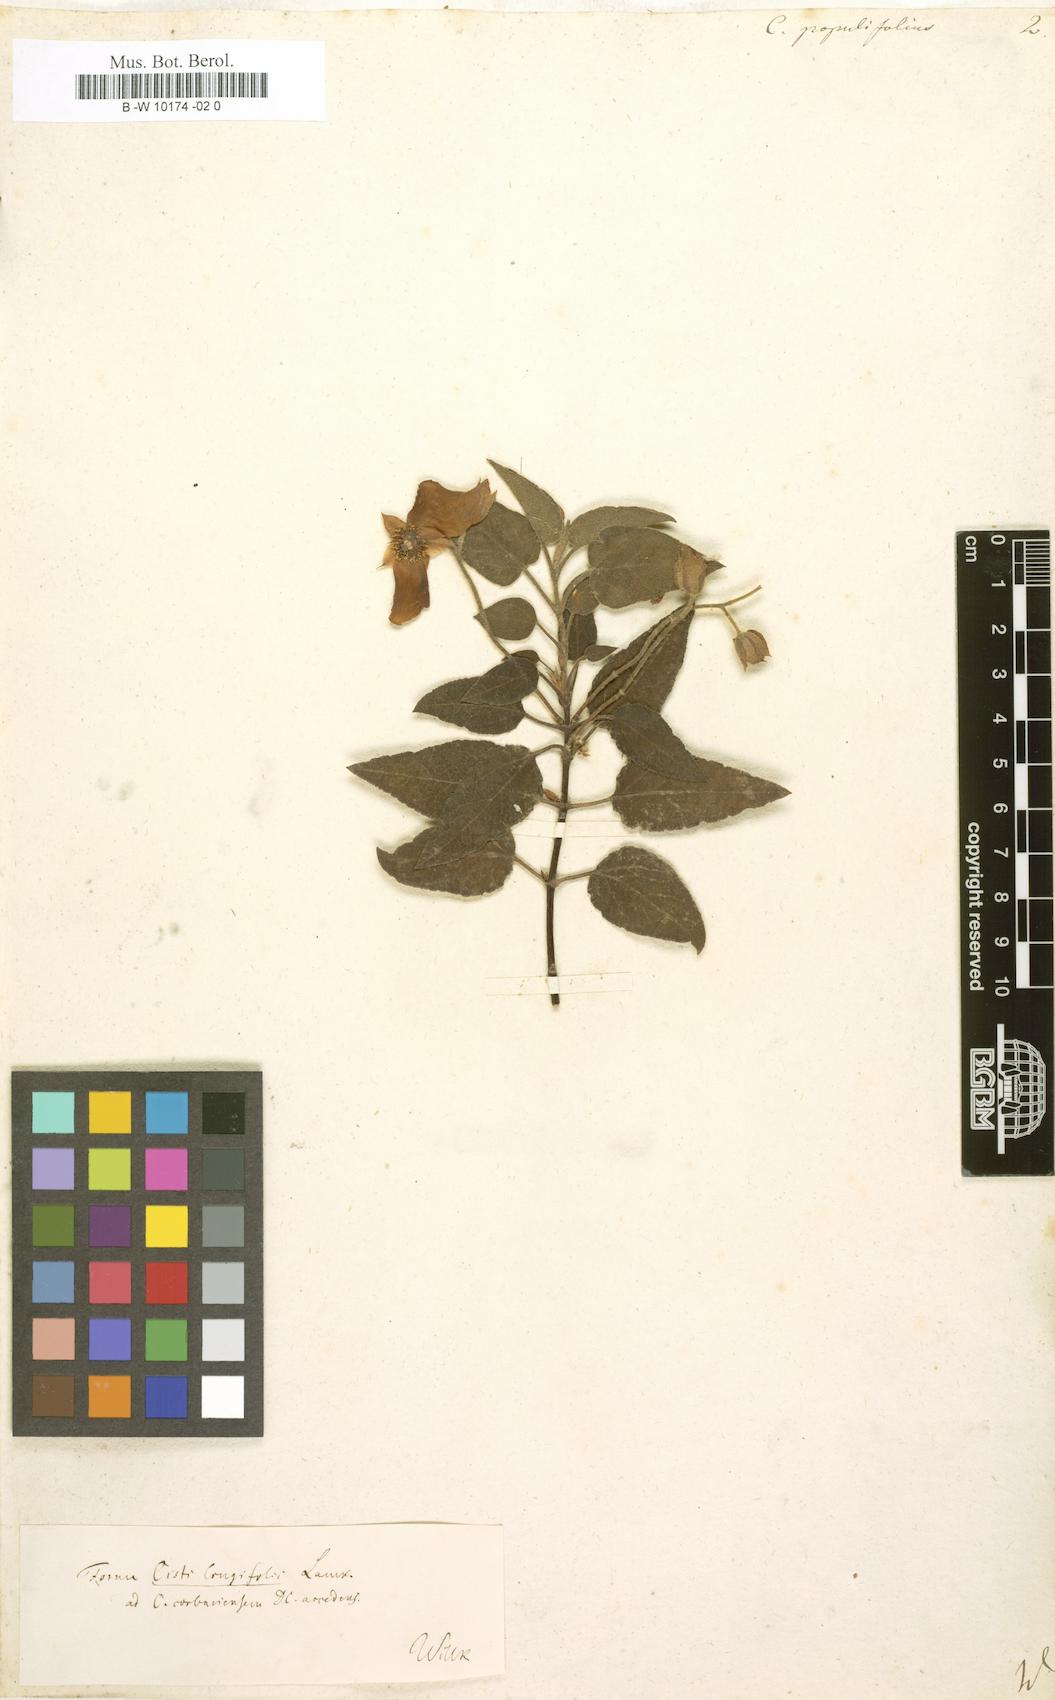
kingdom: Plantae
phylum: Tracheophyta
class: Magnoliopsida
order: Malvales
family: Cistaceae
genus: Cistus
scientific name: Cistus populifolius
